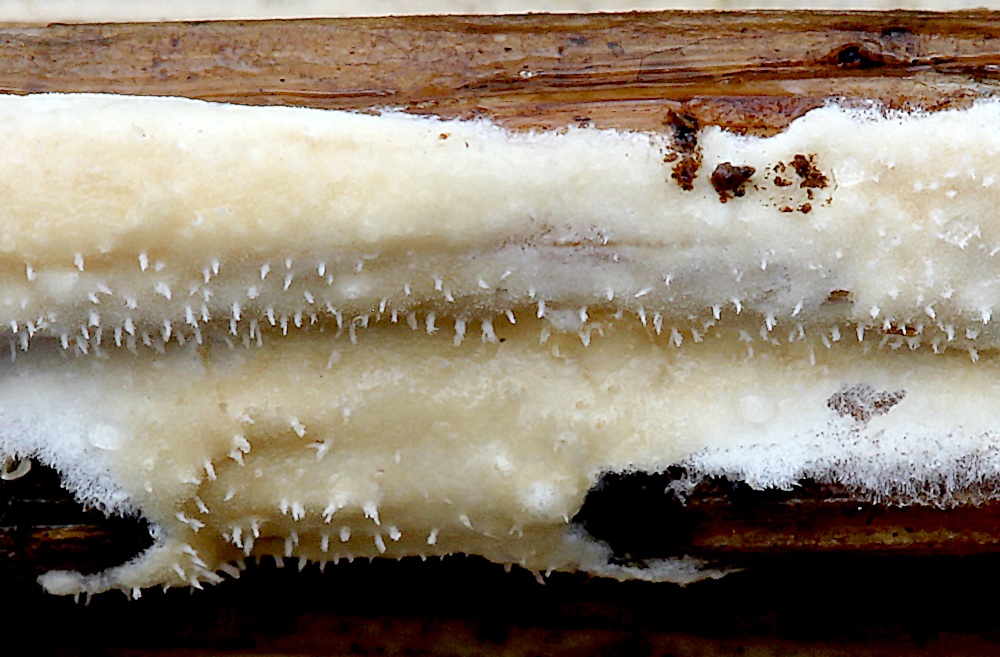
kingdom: Fungi
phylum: Basidiomycota
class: Agaricomycetes
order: Polyporales
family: Polyporaceae
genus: Epithele
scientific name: Epithele typhae
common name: starpig
